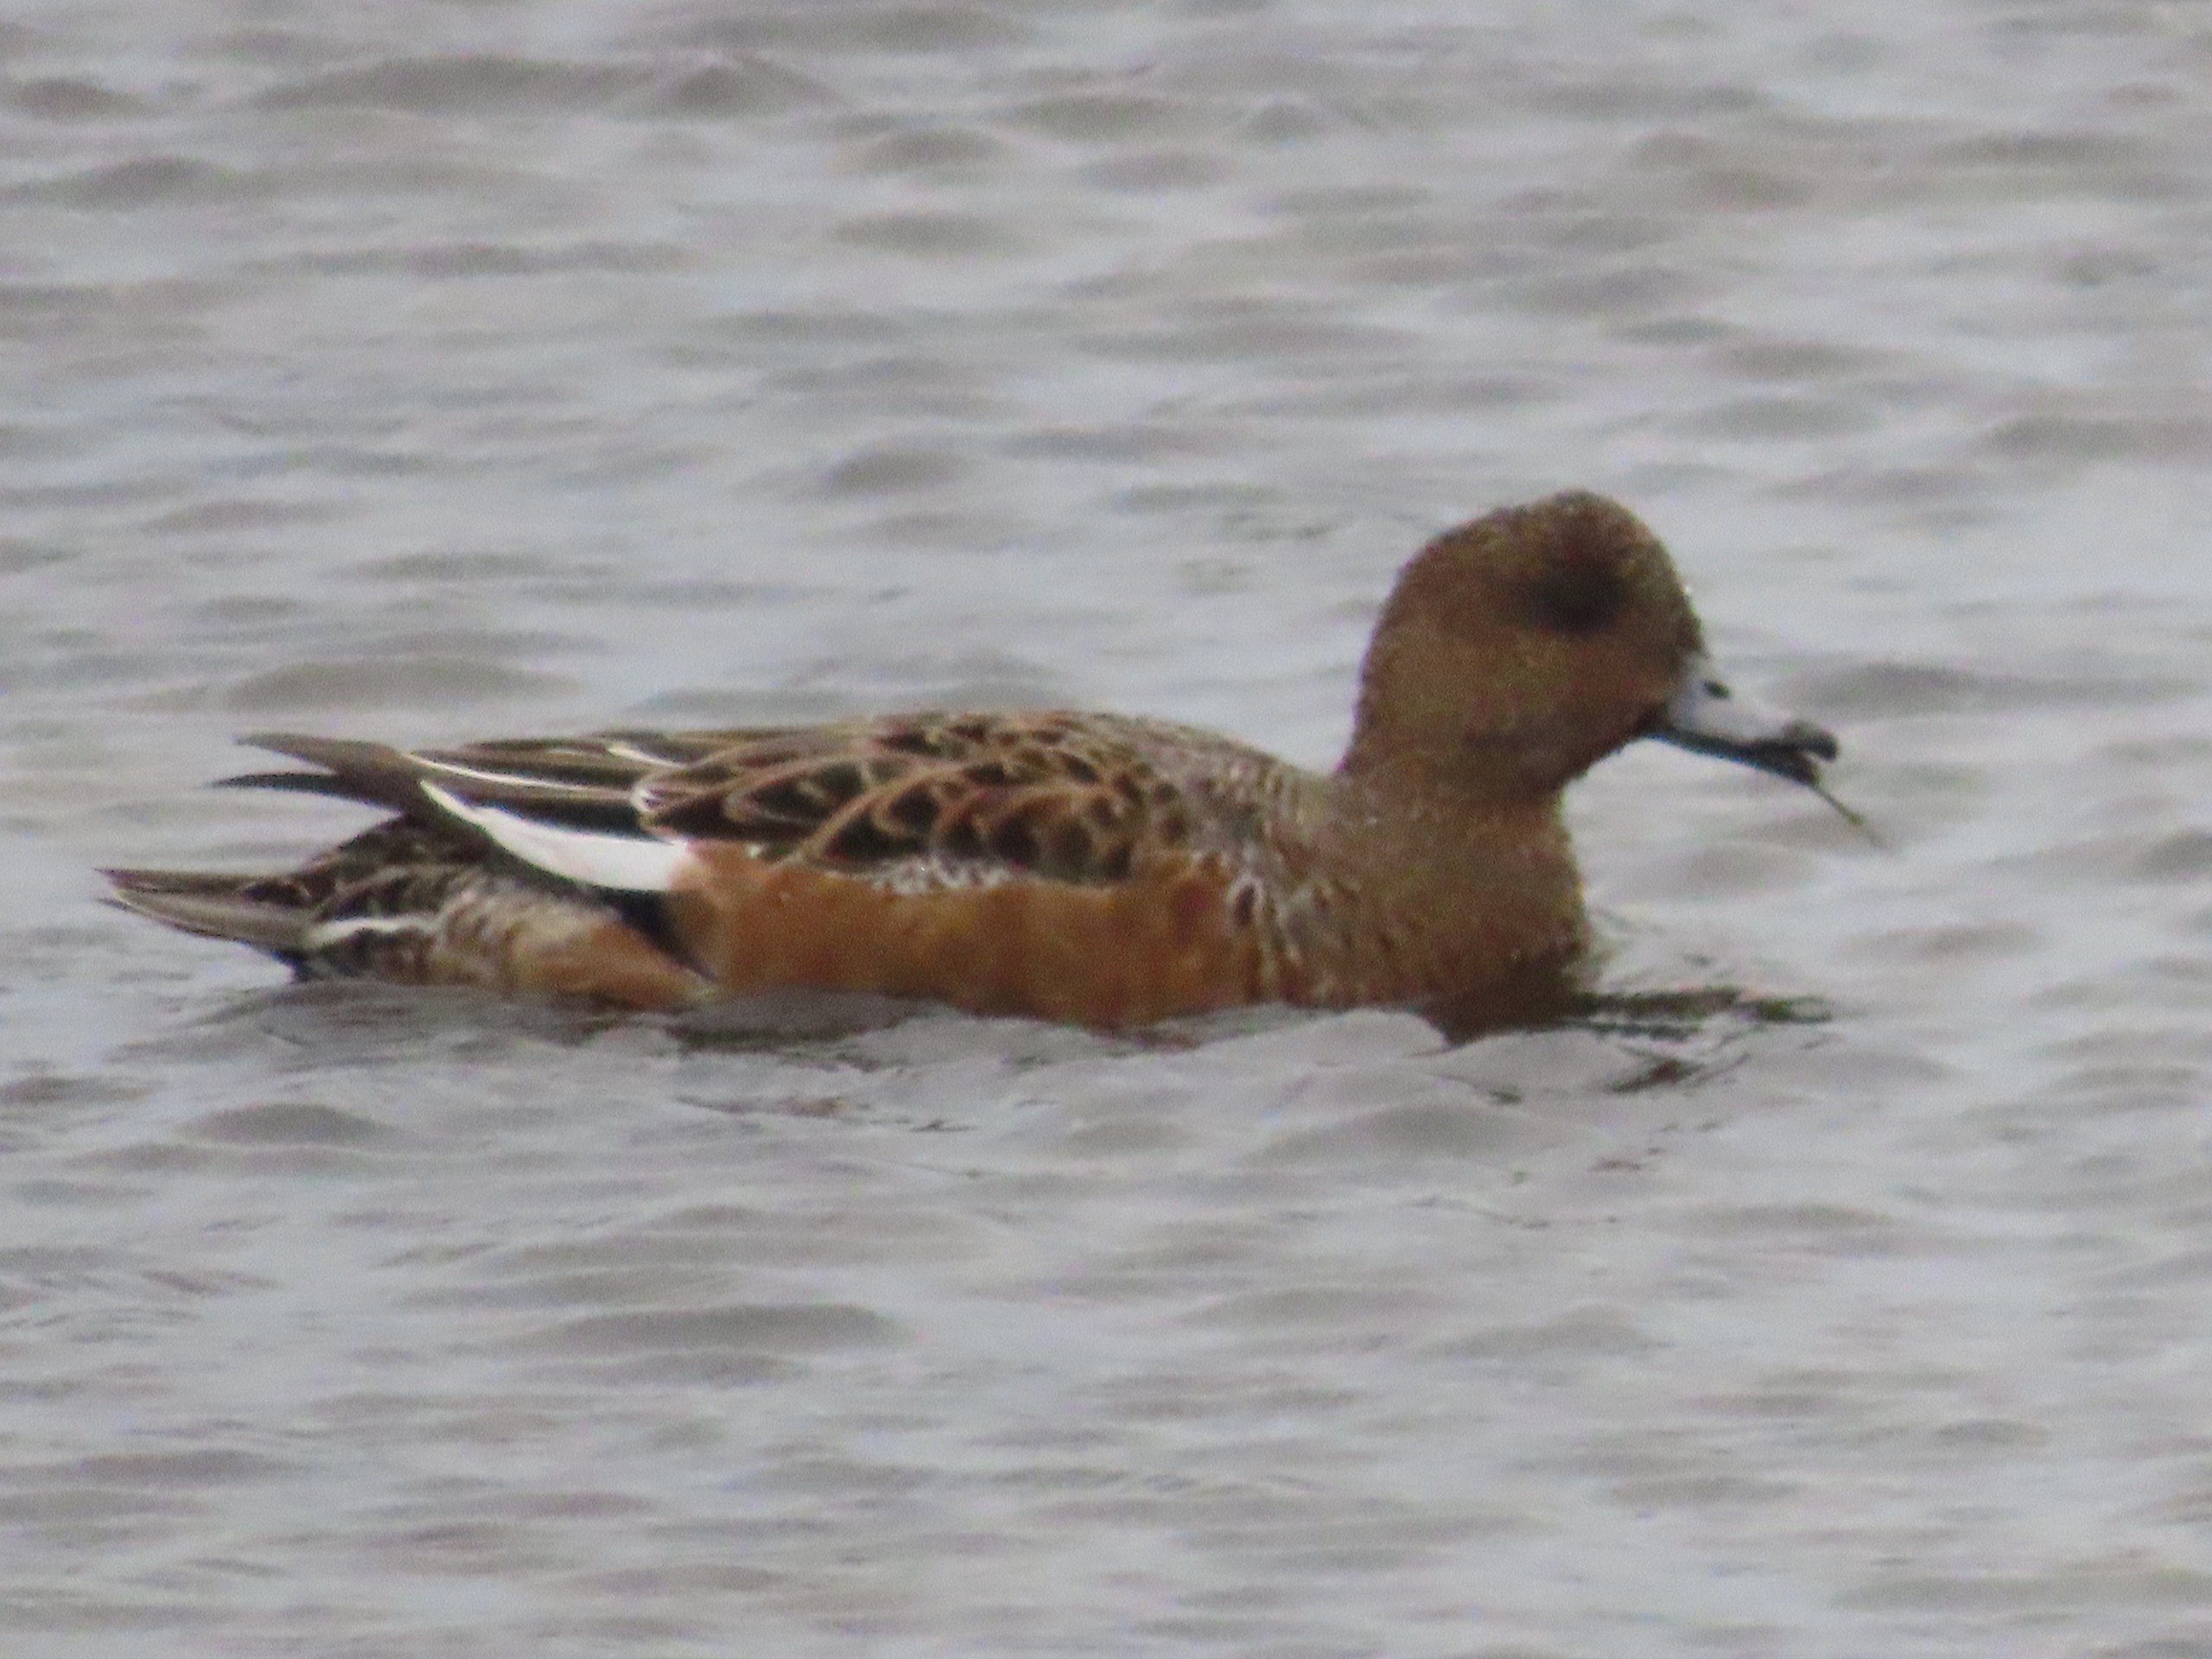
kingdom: Animalia
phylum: Chordata
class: Aves
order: Anseriformes
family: Anatidae
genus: Mareca
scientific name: Mareca penelope
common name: Pibeand
